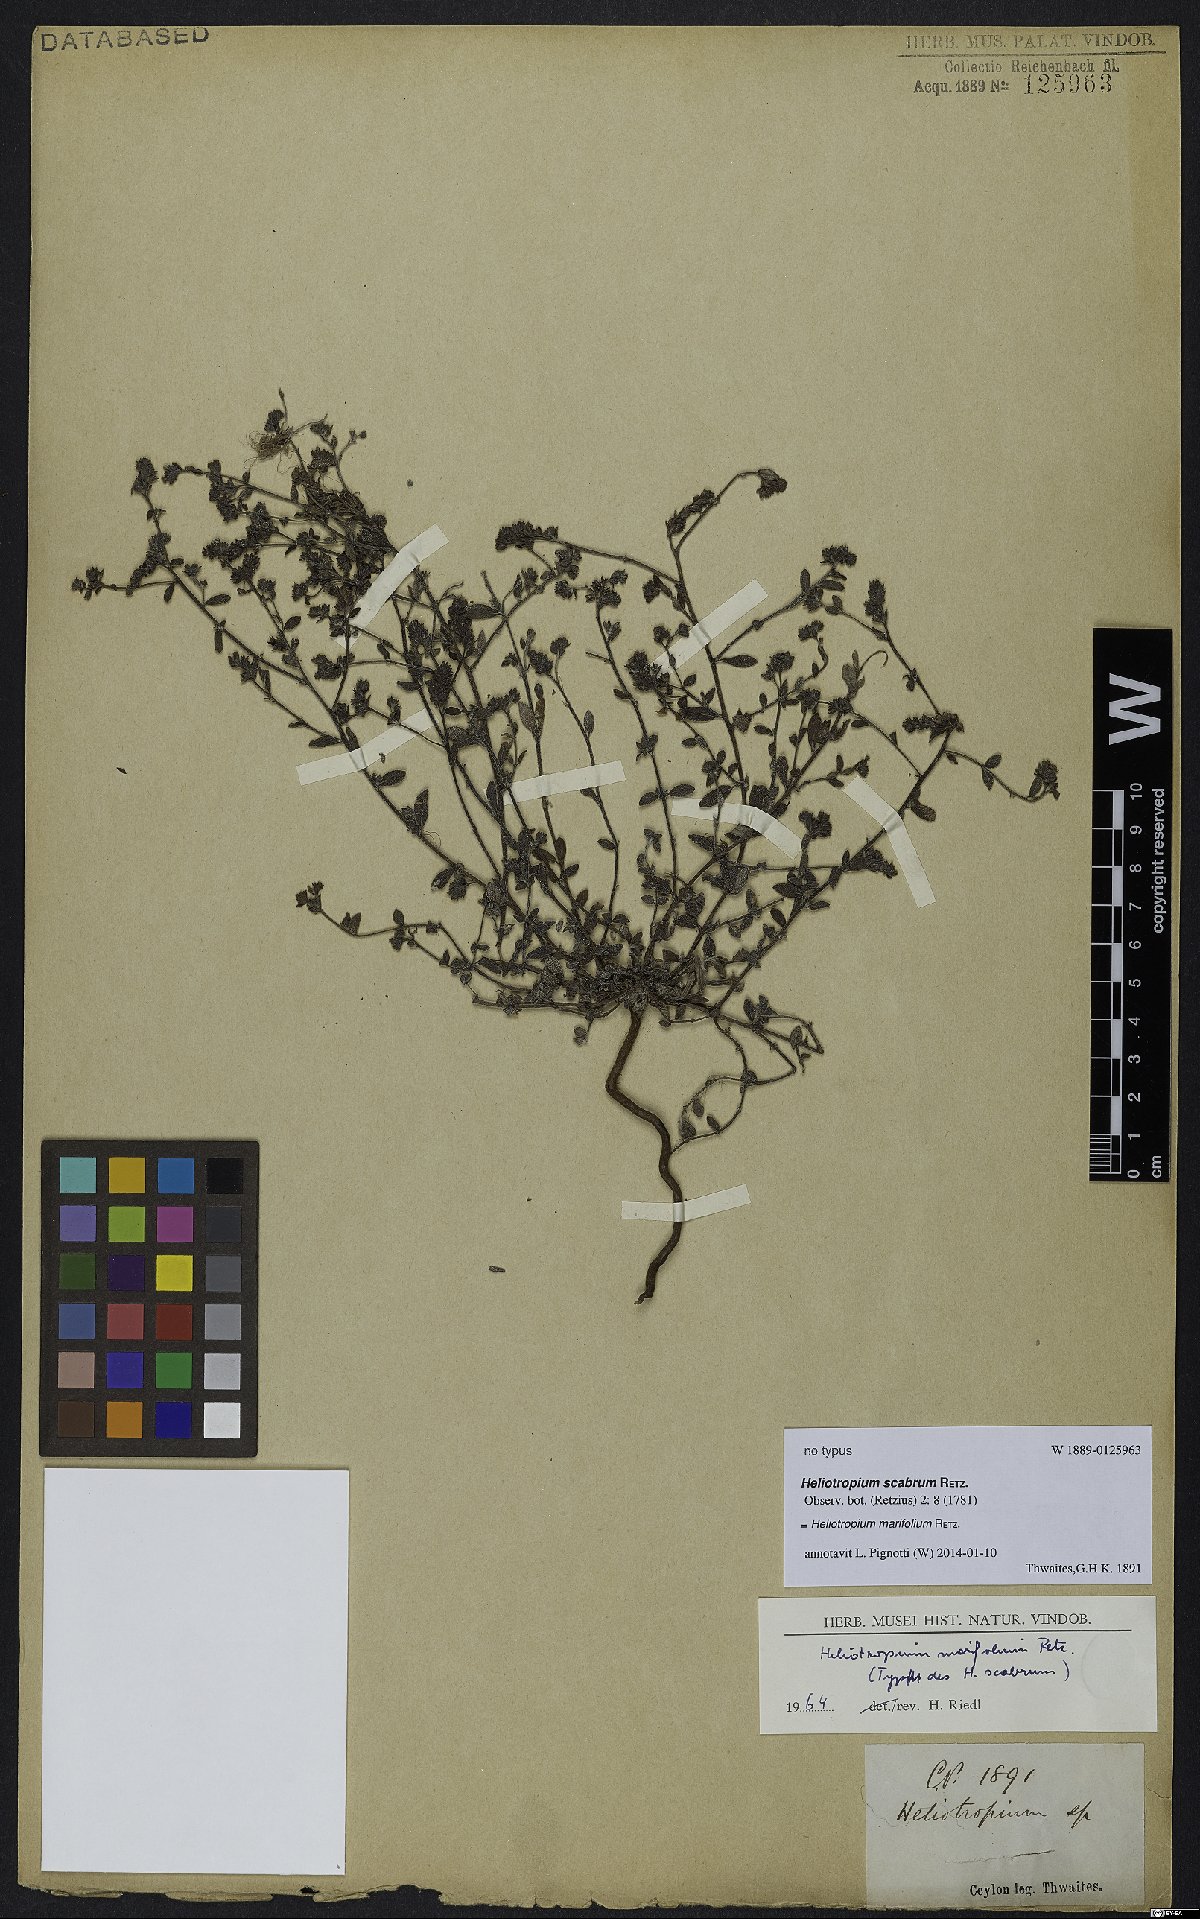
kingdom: Plantae
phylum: Tracheophyta
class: Magnoliopsida
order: Boraginales
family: Heliotropiaceae
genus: Euploca
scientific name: Euploca marifolia
